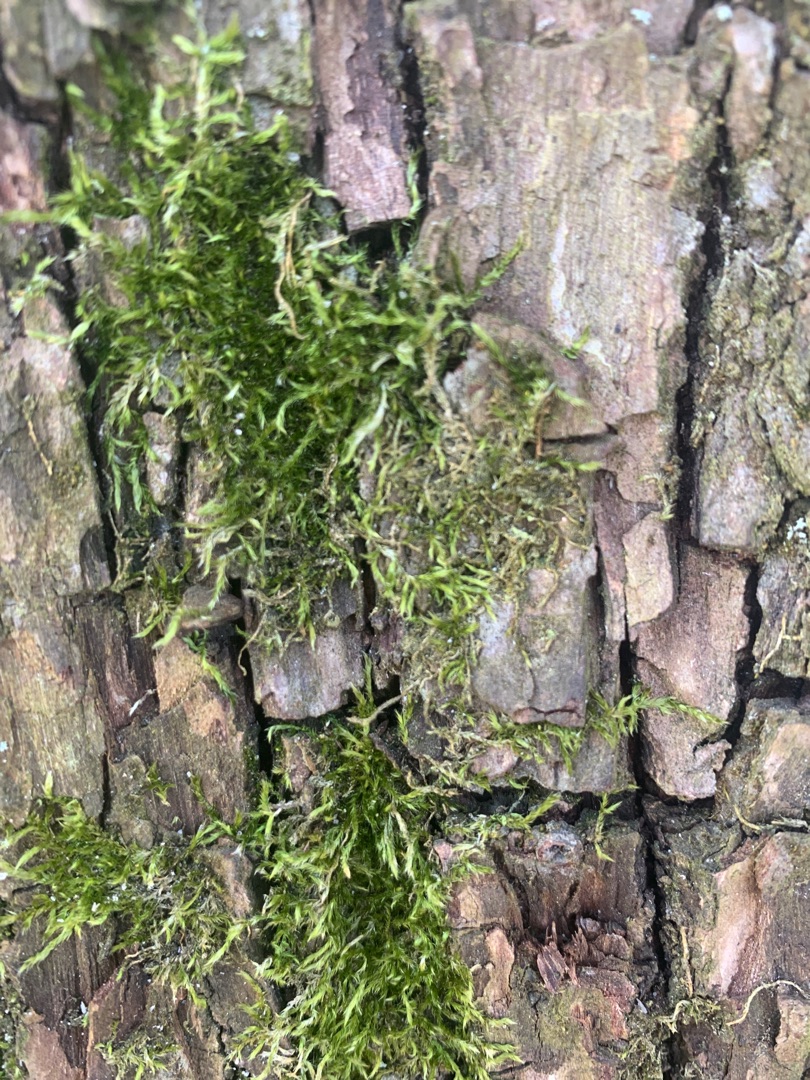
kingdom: Plantae
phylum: Bryophyta
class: Bryopsida
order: Hypnales
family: Hypnaceae
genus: Hypnum
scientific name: Hypnum
